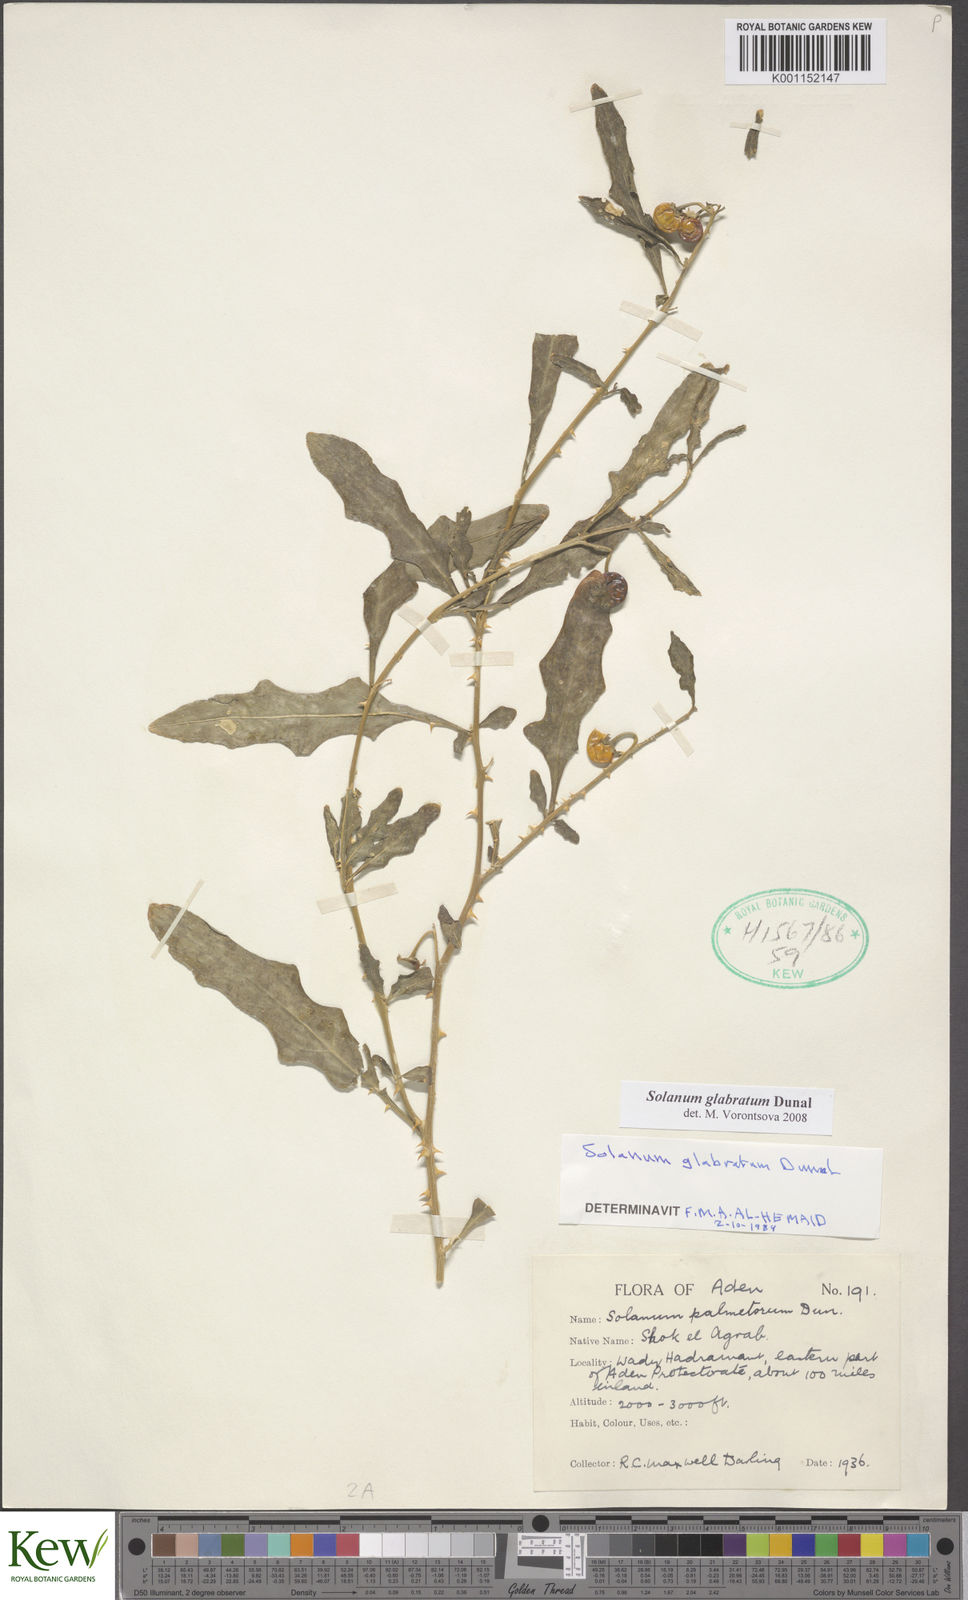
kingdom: Plantae
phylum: Tracheophyta
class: Magnoliopsida
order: Solanales
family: Solanaceae
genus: Solanum
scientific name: Solanum glabratum
